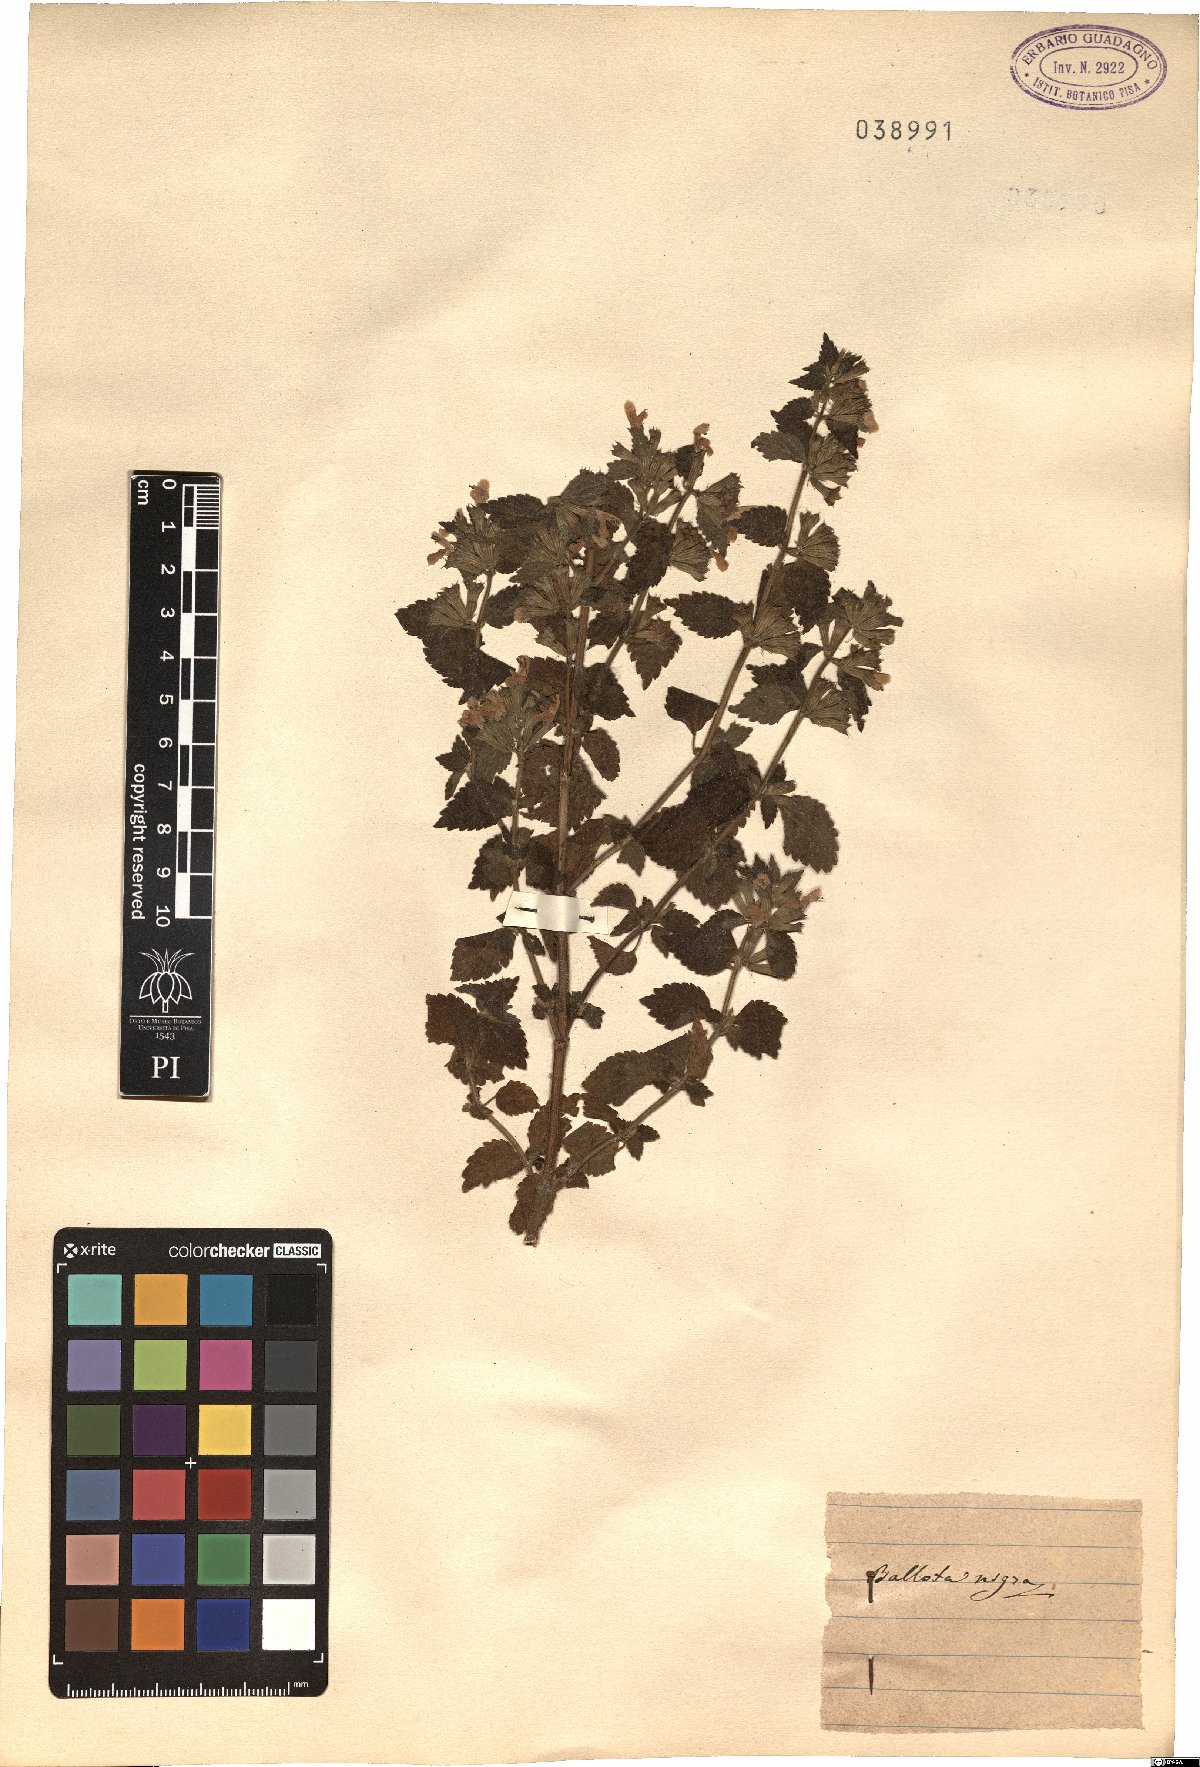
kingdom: Plantae
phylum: Tracheophyta
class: Magnoliopsida
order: Lamiales
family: Lamiaceae
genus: Ballota
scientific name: Ballota nigra
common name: Black horehound
